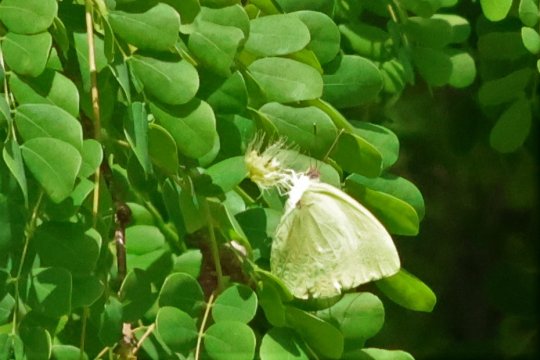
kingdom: Animalia
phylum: Arthropoda
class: Insecta
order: Lepidoptera
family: Pieridae
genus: Aphrissa
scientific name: Aphrissa neleis
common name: Pink-spot Sulphur
